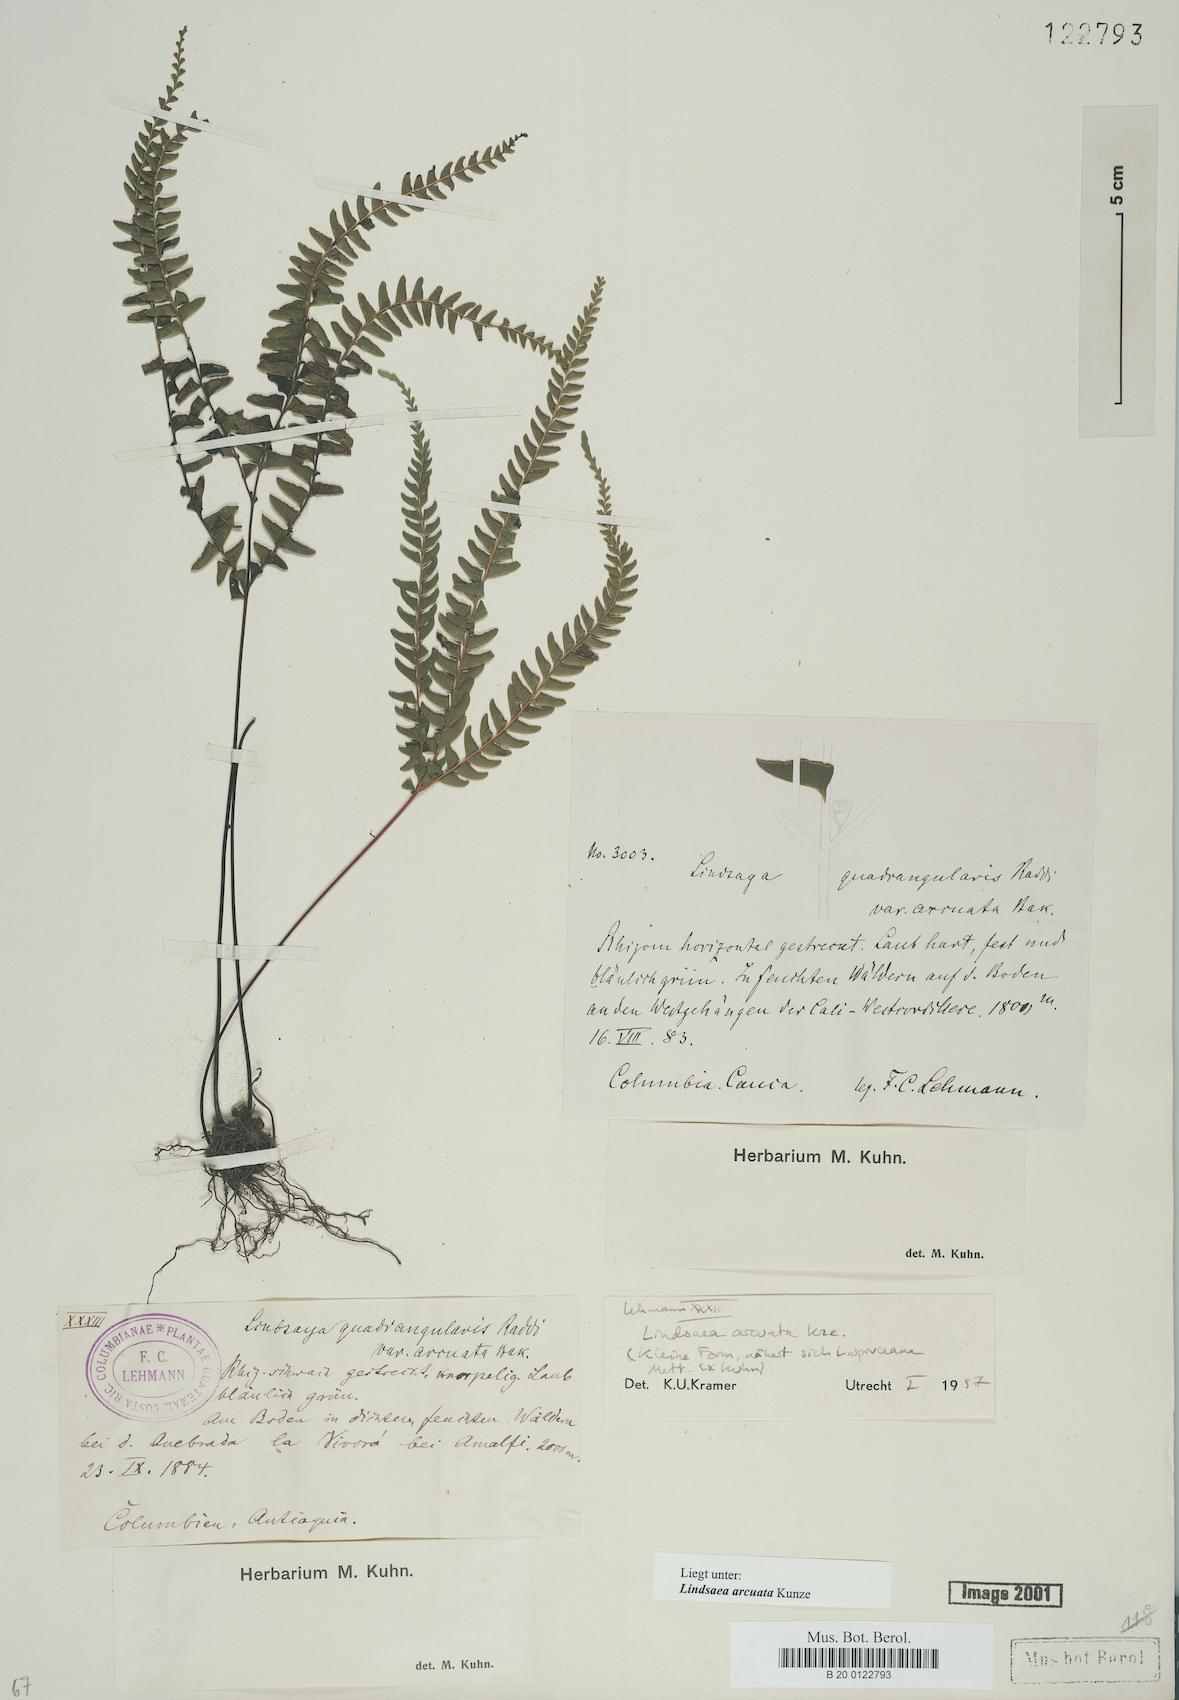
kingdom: Plantae
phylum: Tracheophyta
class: Polypodiopsida
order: Polypodiales
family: Lindsaeaceae
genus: Lindsaea
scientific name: Lindsaea arcuata
